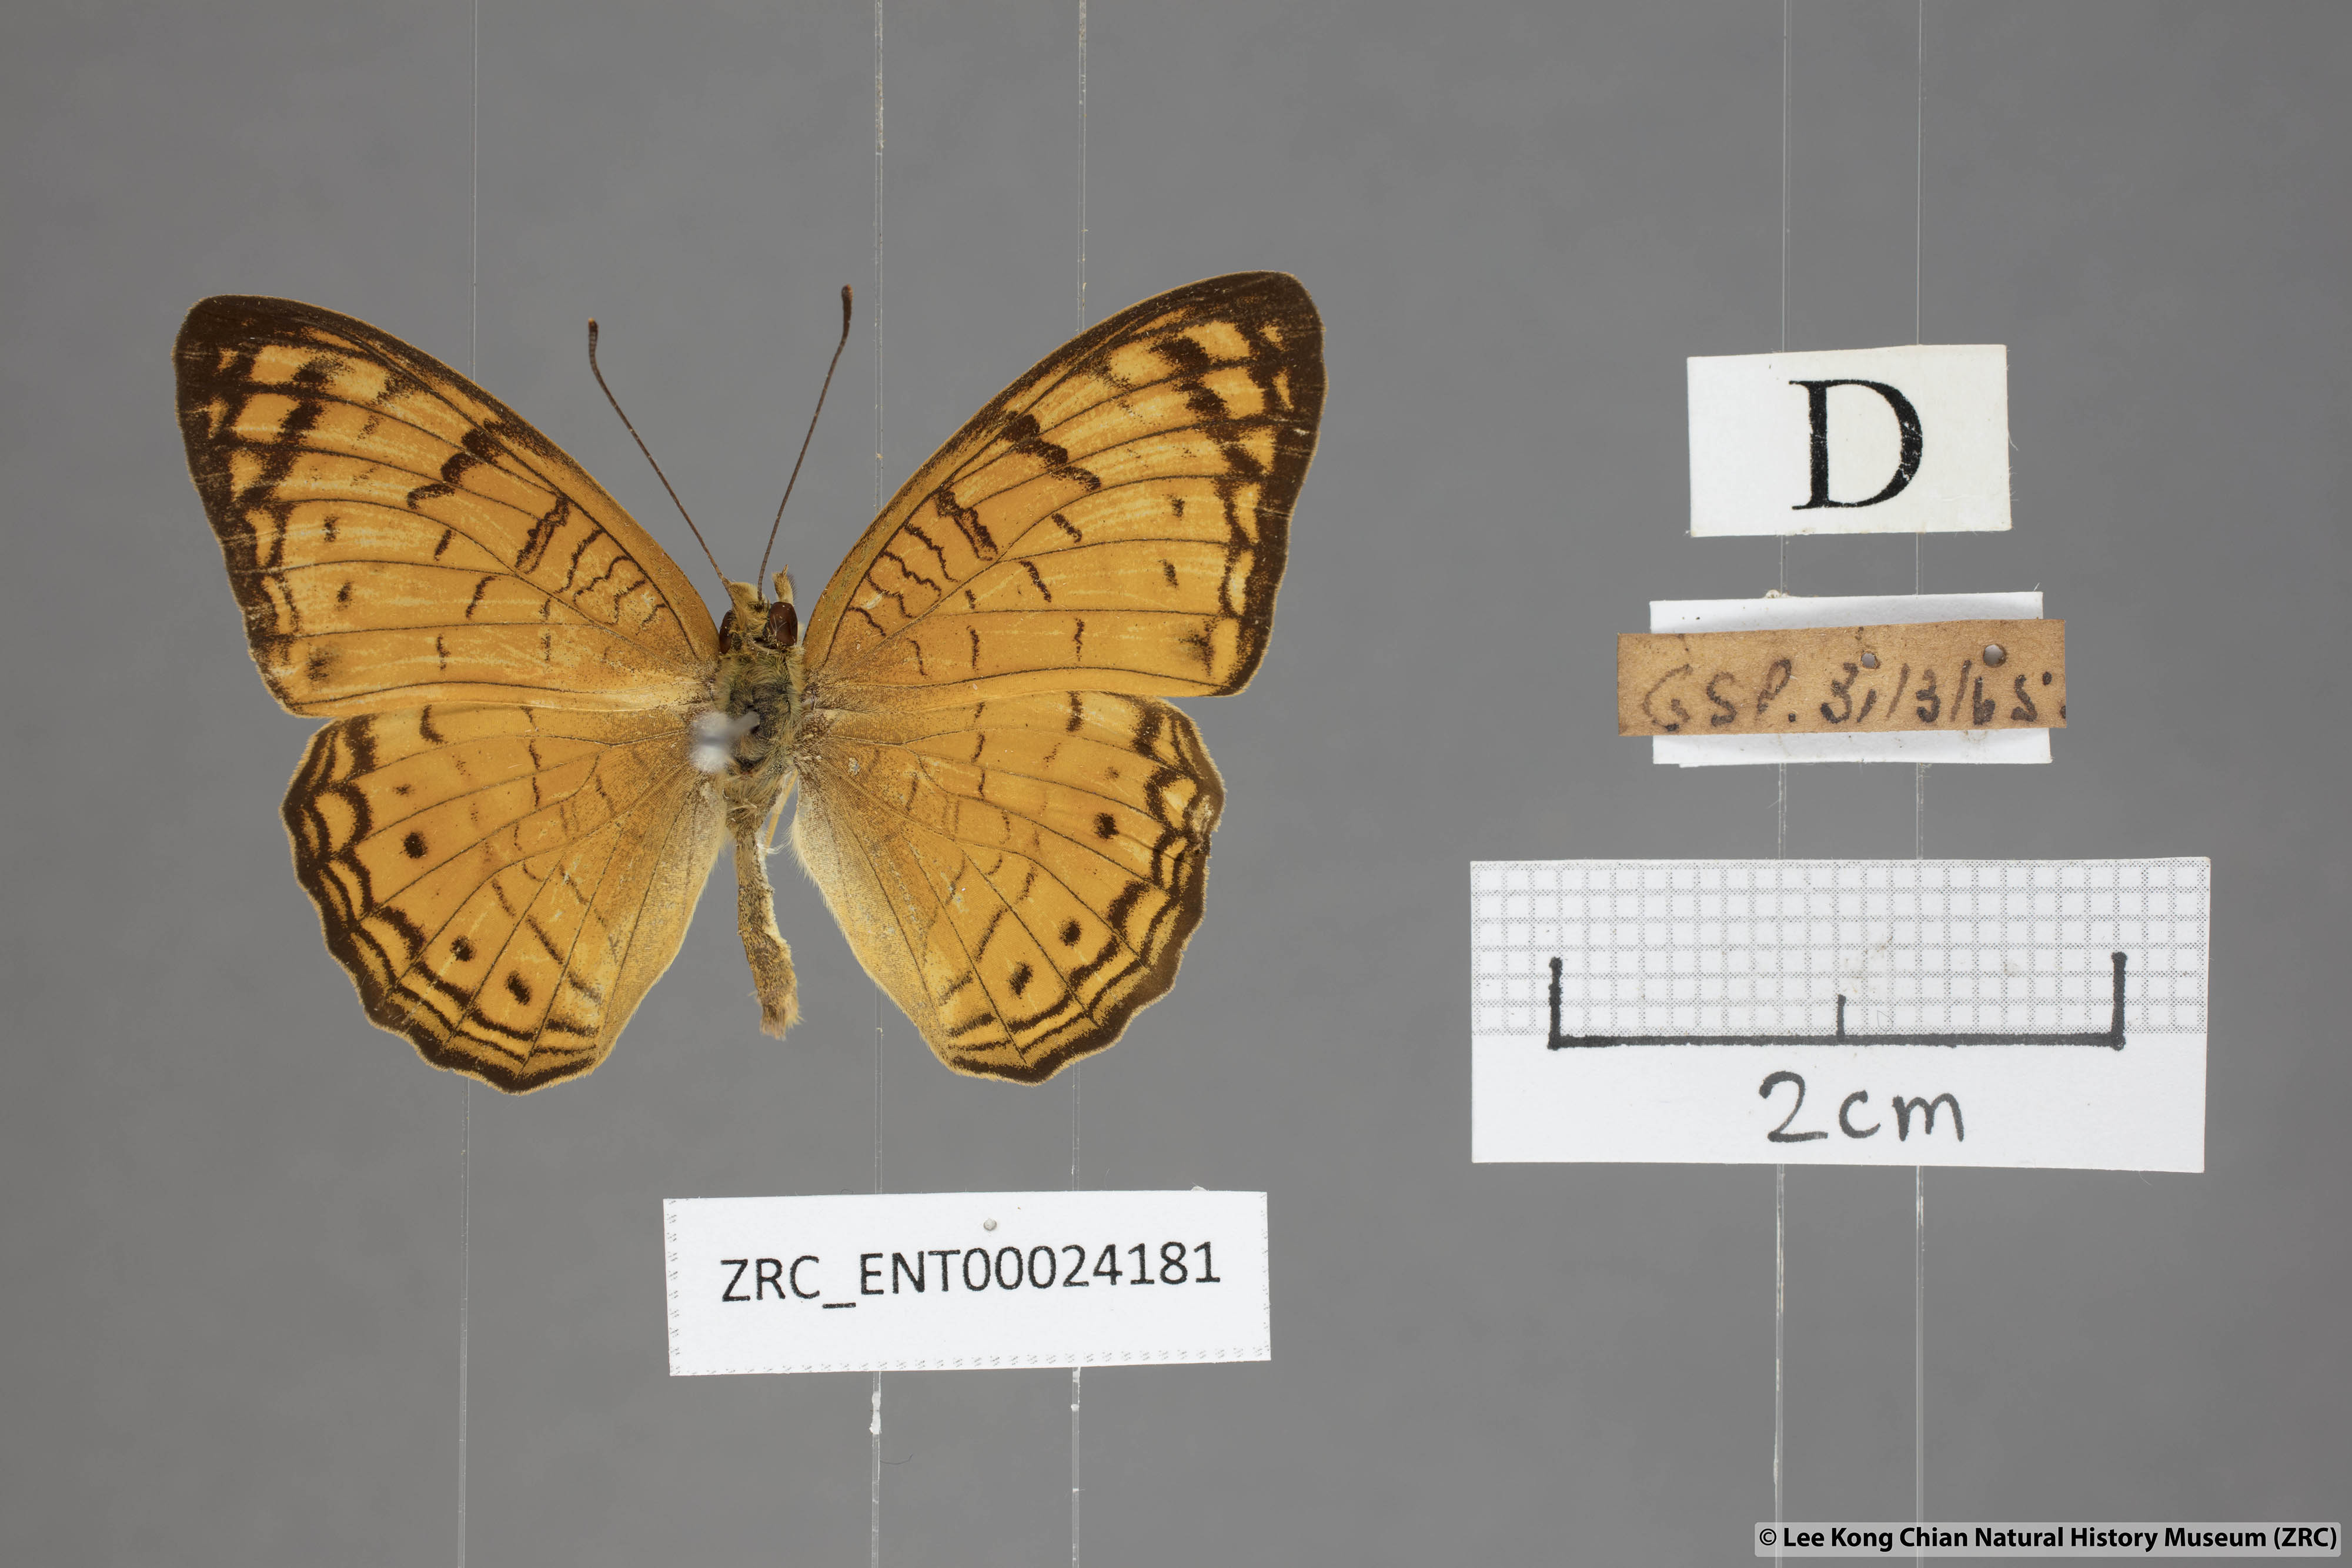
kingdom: Animalia
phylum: Arthropoda
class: Insecta
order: Lepidoptera
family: Nymphalidae
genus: Phalanta
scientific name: Phalanta alcippe
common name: Small leopard
